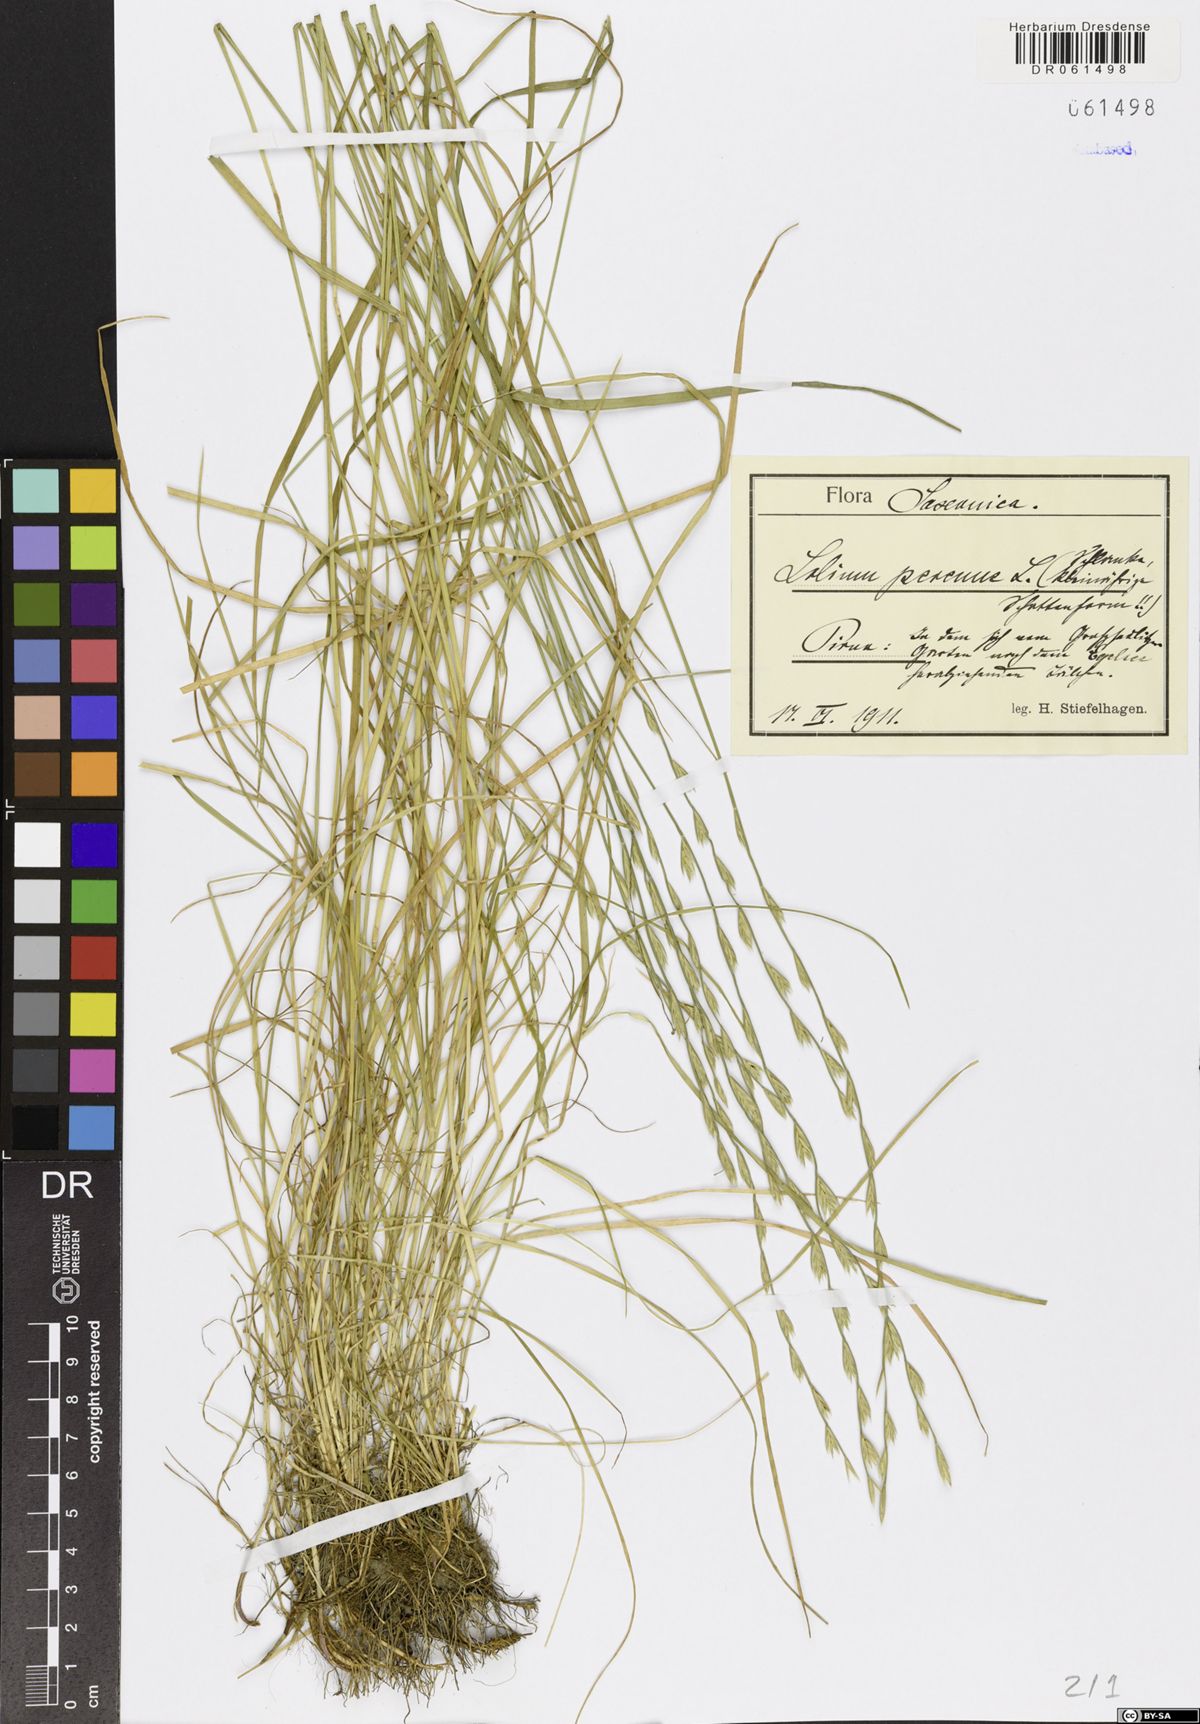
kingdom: Plantae
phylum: Tracheophyta
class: Liliopsida
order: Poales
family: Poaceae
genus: Lolium
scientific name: Lolium perenne
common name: Perennial ryegrass
